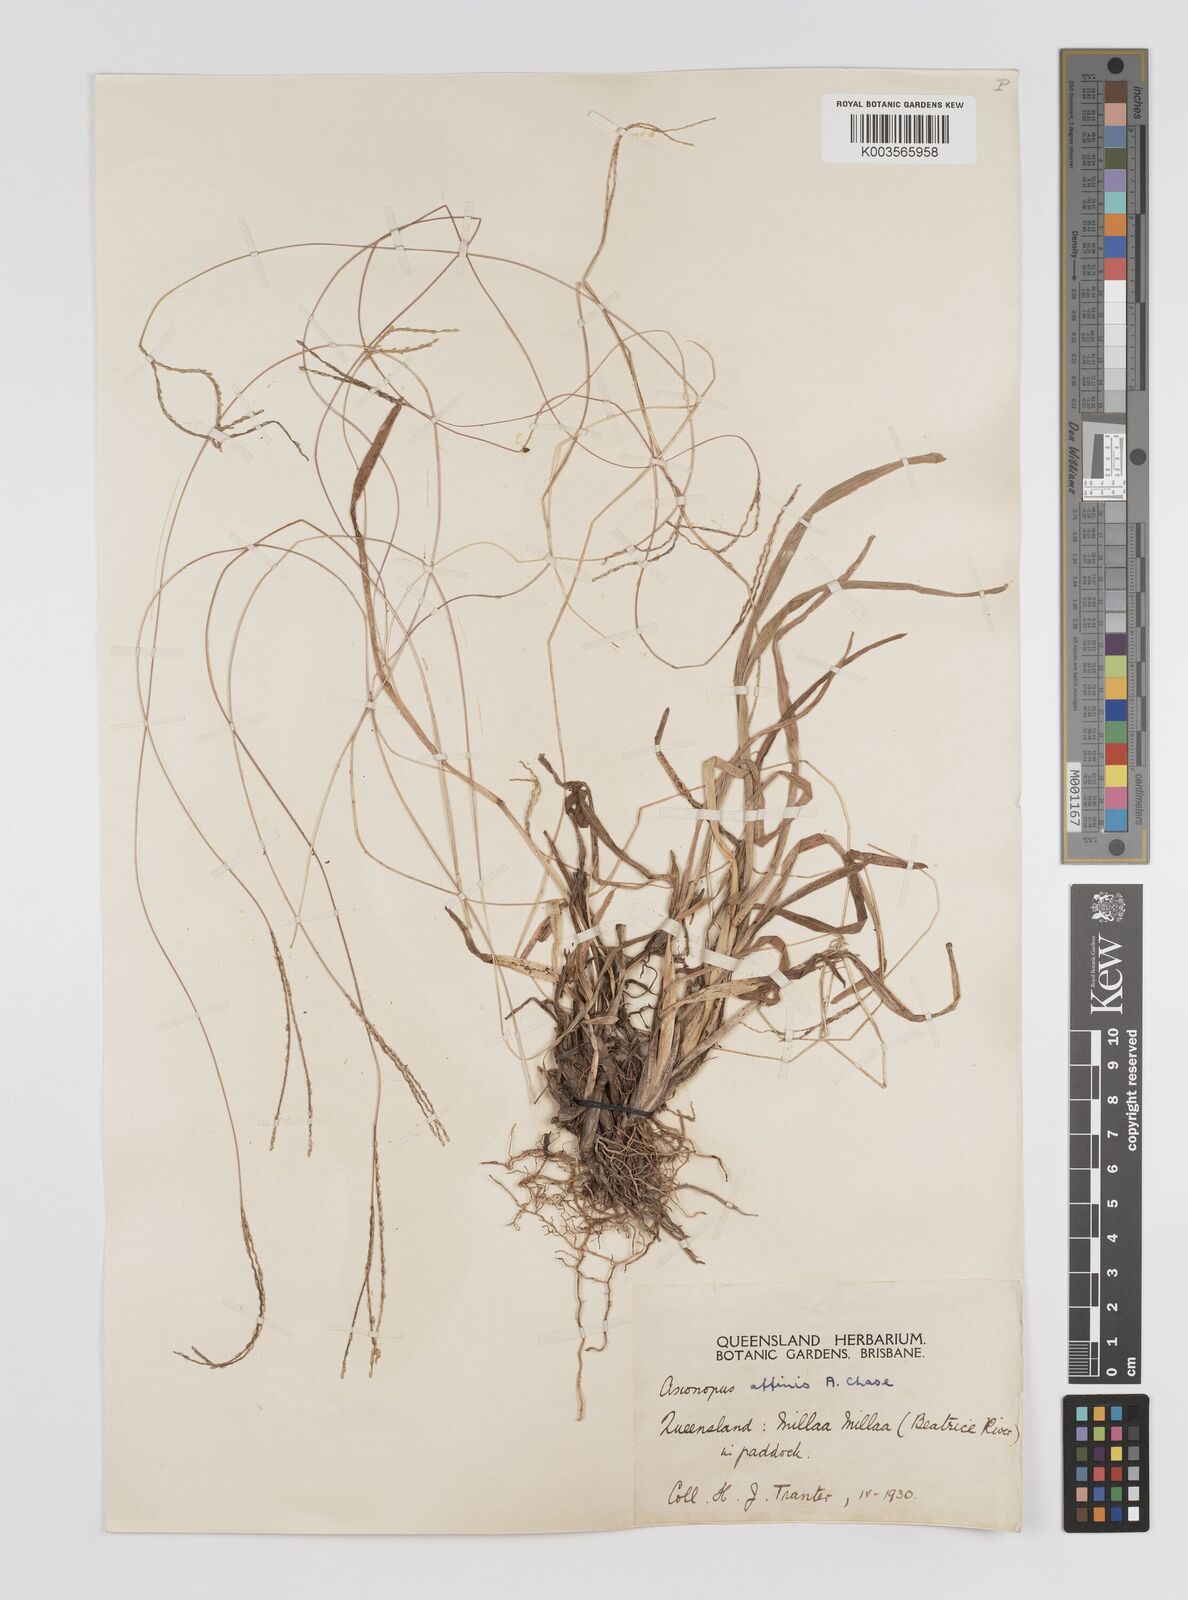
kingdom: Plantae
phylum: Tracheophyta
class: Liliopsida
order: Poales
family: Poaceae
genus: Axonopus
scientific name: Axonopus fissifolius
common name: Common carpetgrass
